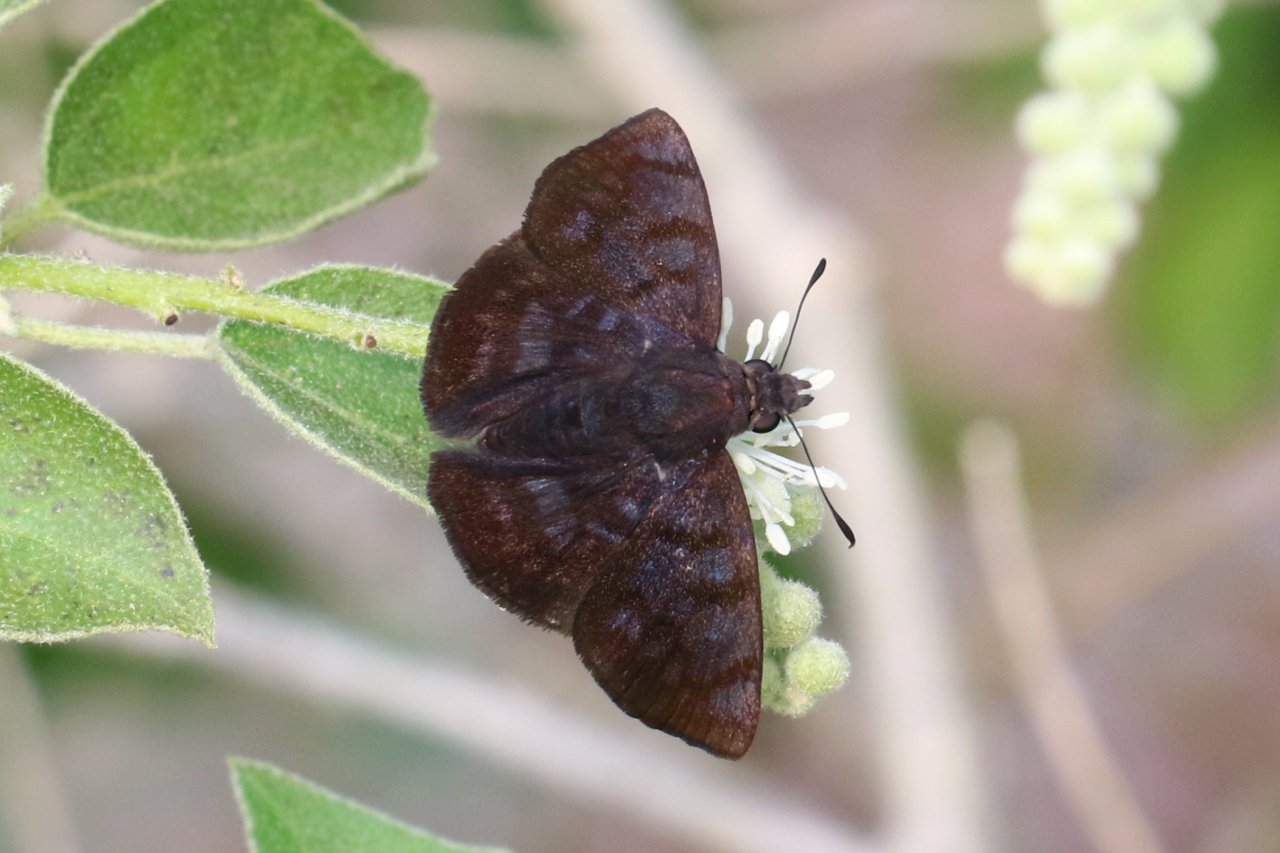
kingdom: Animalia
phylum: Arthropoda
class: Insecta
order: Lepidoptera
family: Hesperiidae
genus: Pellicia
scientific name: Pellicia costimacula
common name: Glazed Pellicia
